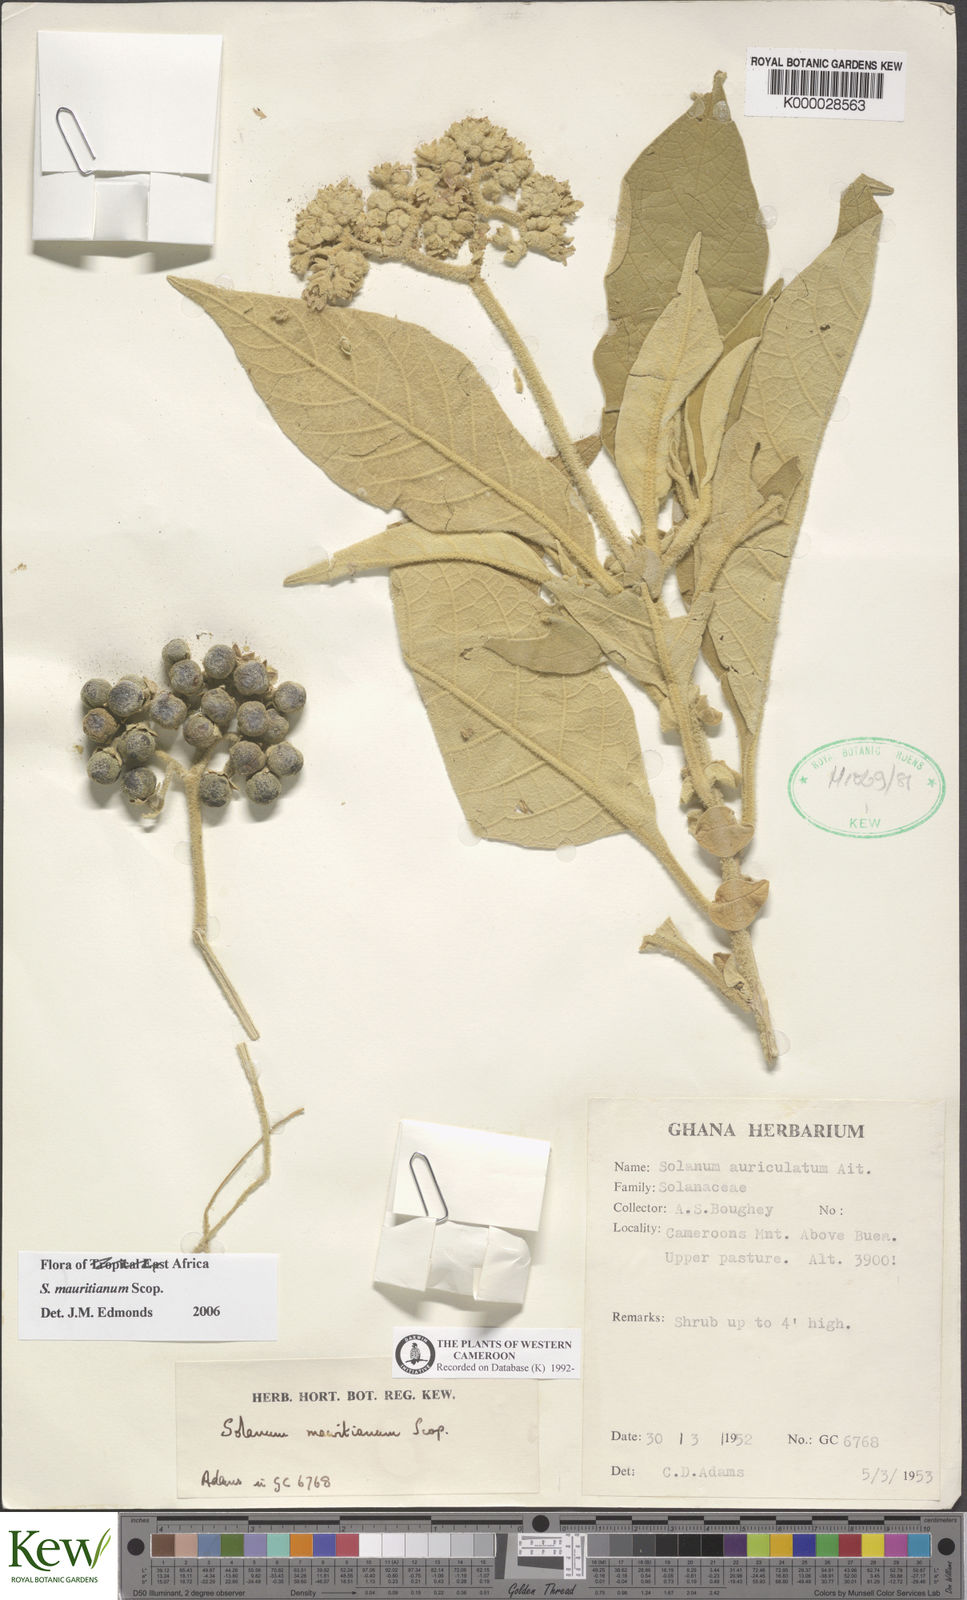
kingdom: Plantae
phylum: Tracheophyta
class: Magnoliopsida
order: Solanales
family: Solanaceae
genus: Solanum
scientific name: Solanum mauritianum
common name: Earleaf nightshade
